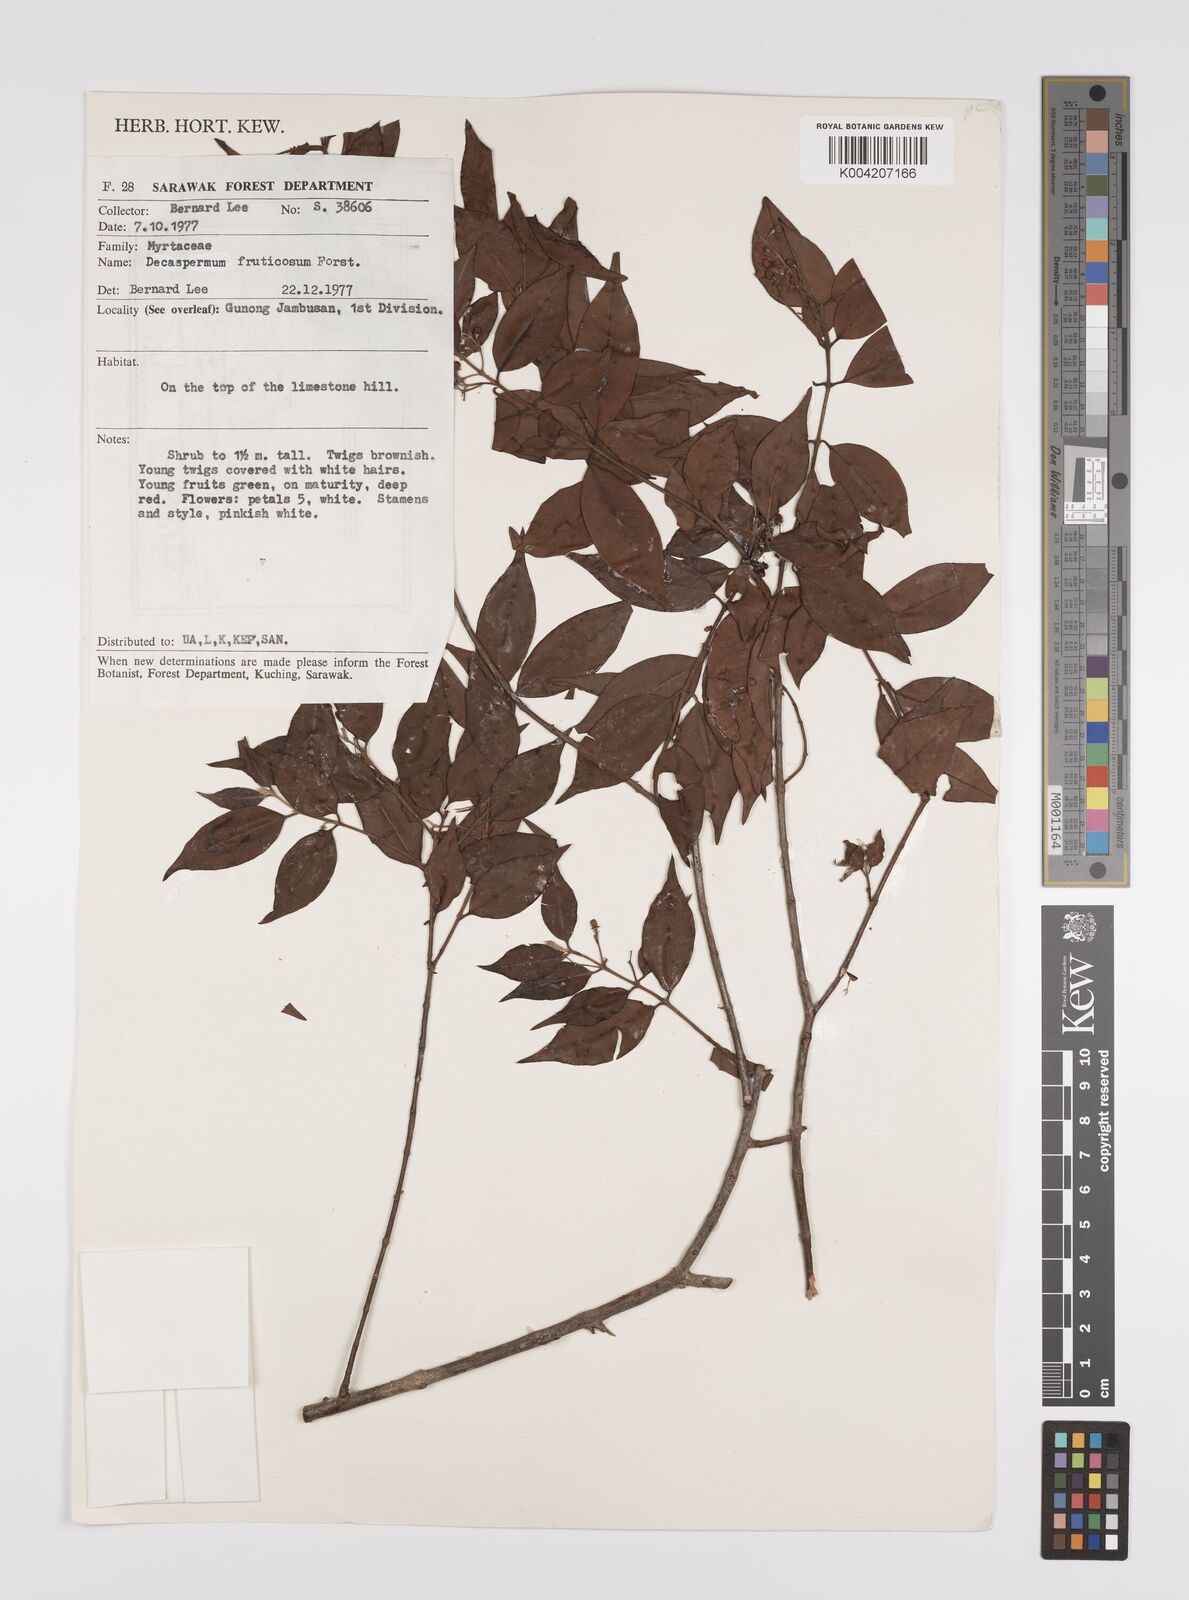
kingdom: Plantae
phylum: Tracheophyta
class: Magnoliopsida
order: Myrtales
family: Myrtaceae
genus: Decaspermum
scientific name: Decaspermum fruticosum
